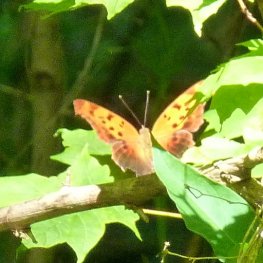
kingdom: Animalia
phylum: Arthropoda
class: Insecta
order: Lepidoptera
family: Nymphalidae
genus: Polygonia
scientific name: Polygonia interrogationis
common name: Question Mark
